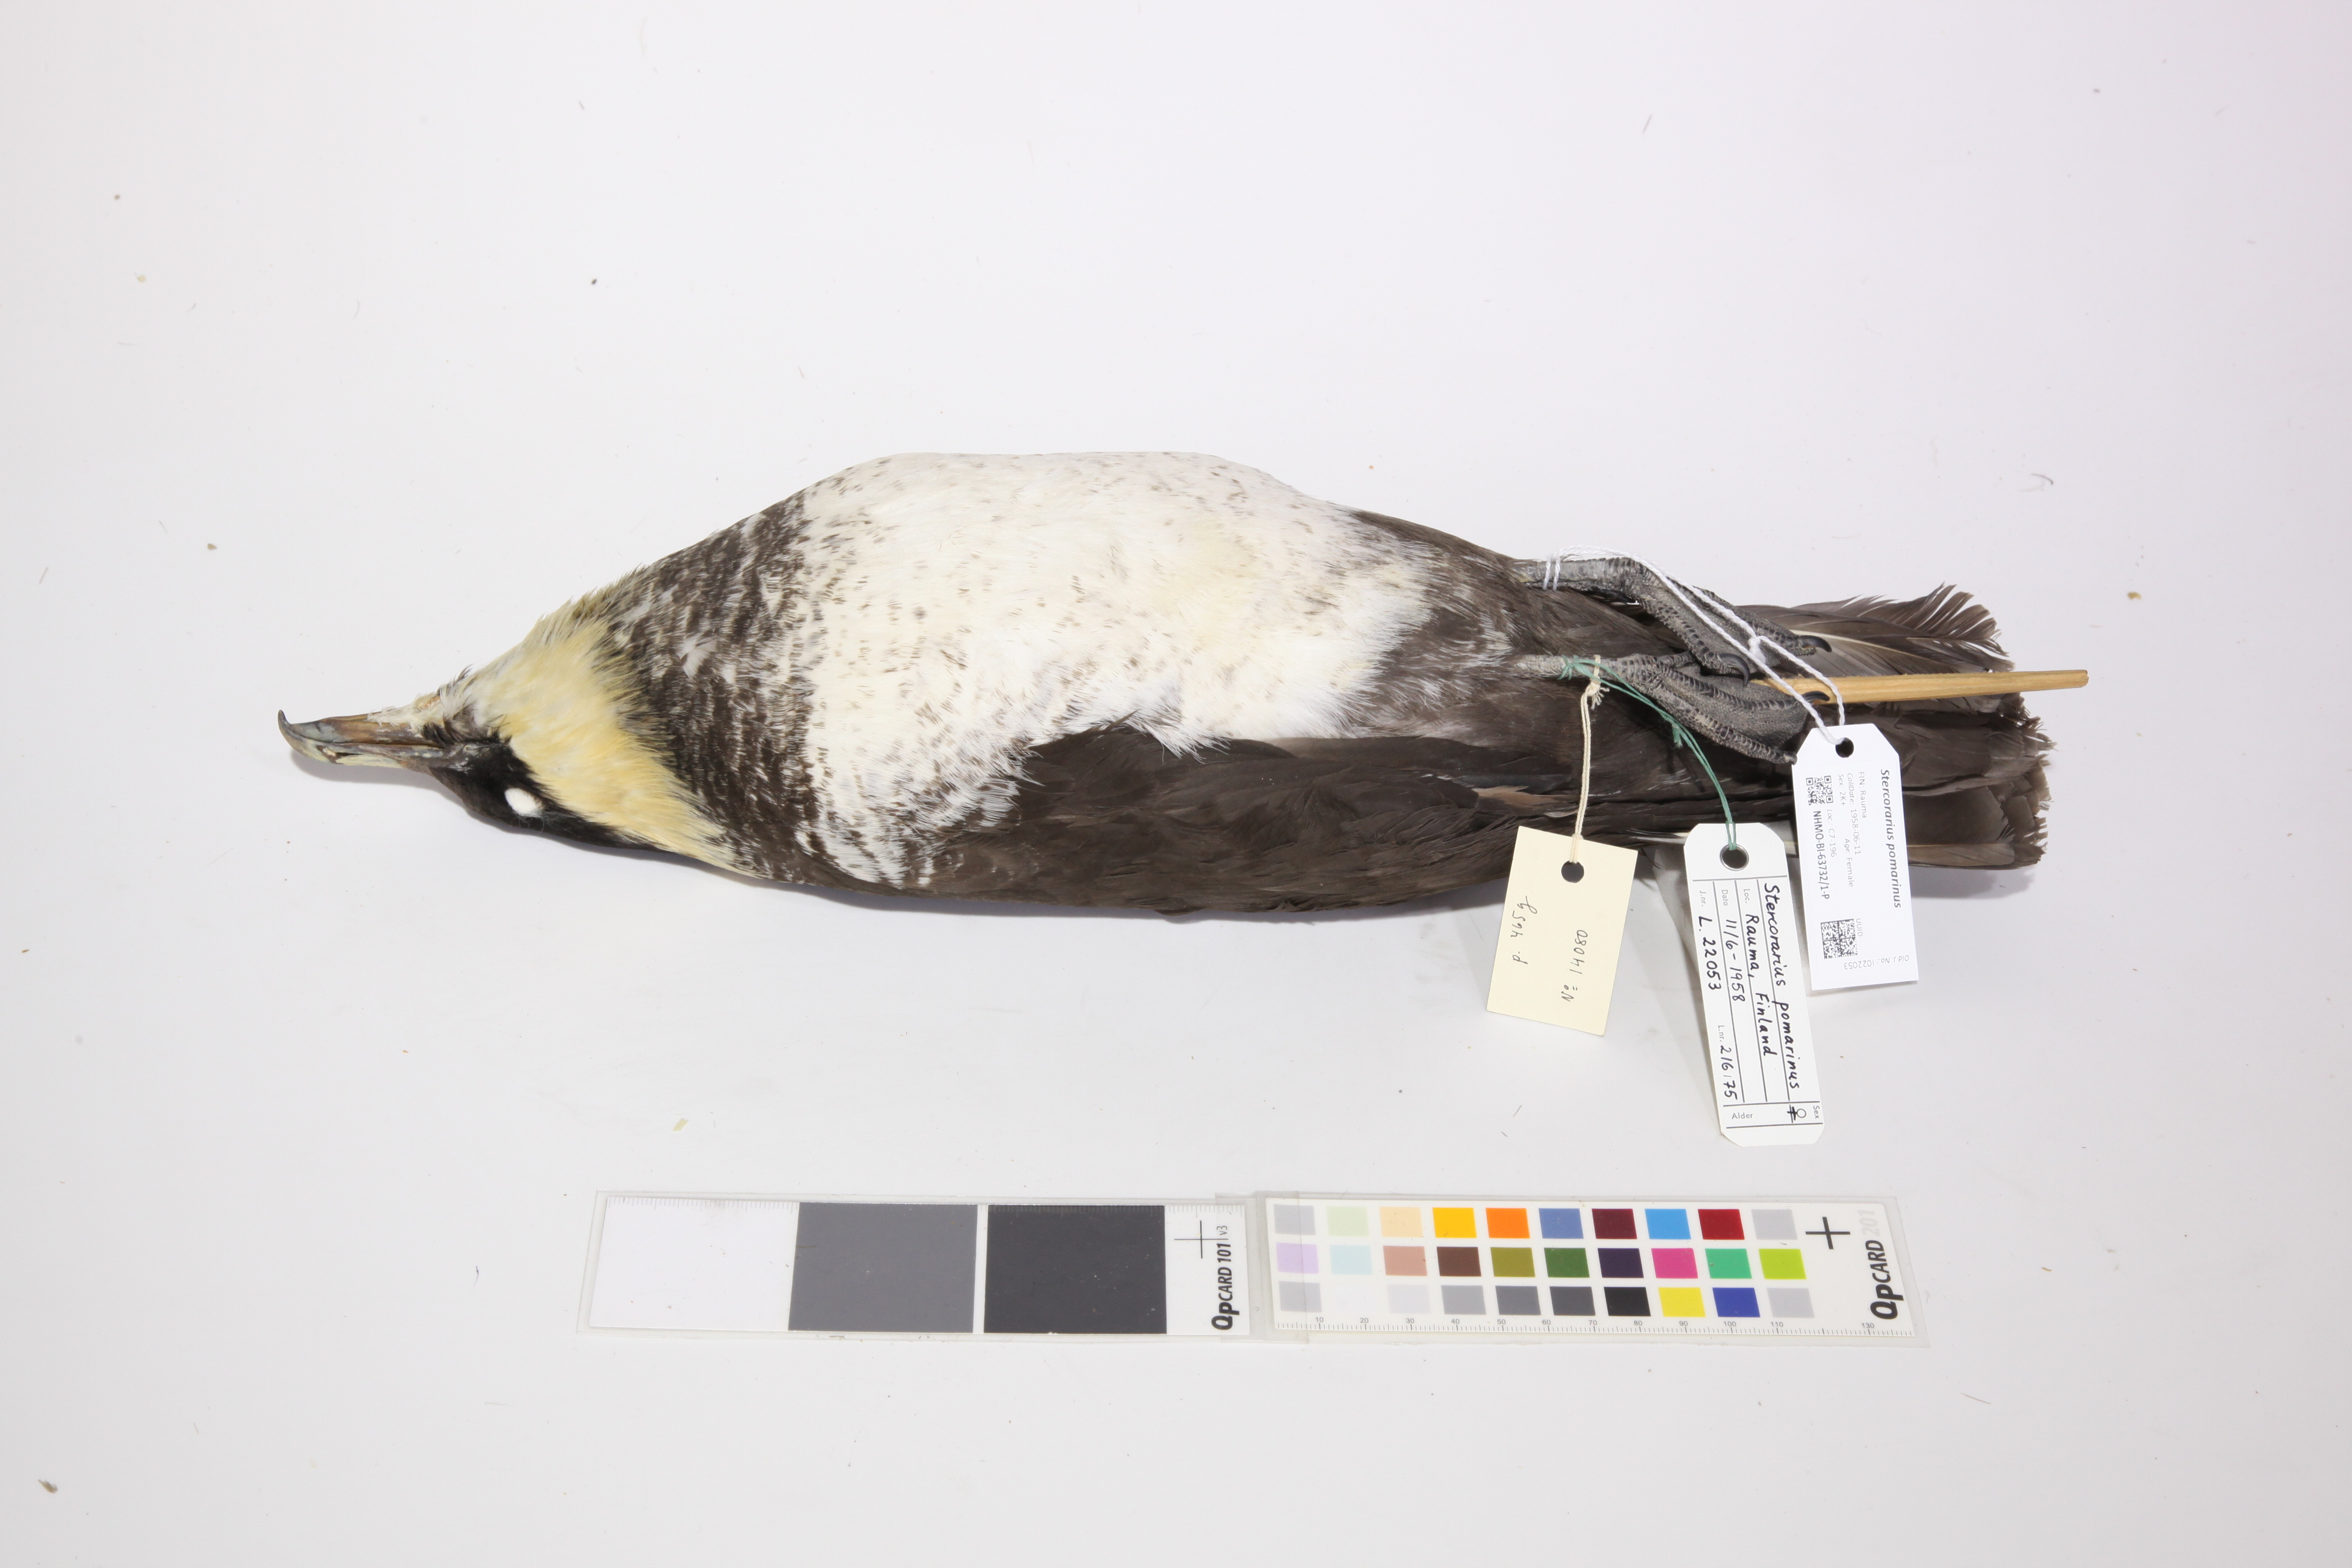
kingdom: Animalia
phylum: Chordata
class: Aves
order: Charadriiformes
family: Stercorariidae
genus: Stercorarius
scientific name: Stercorarius pomarinus
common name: Pomarine jaeger
